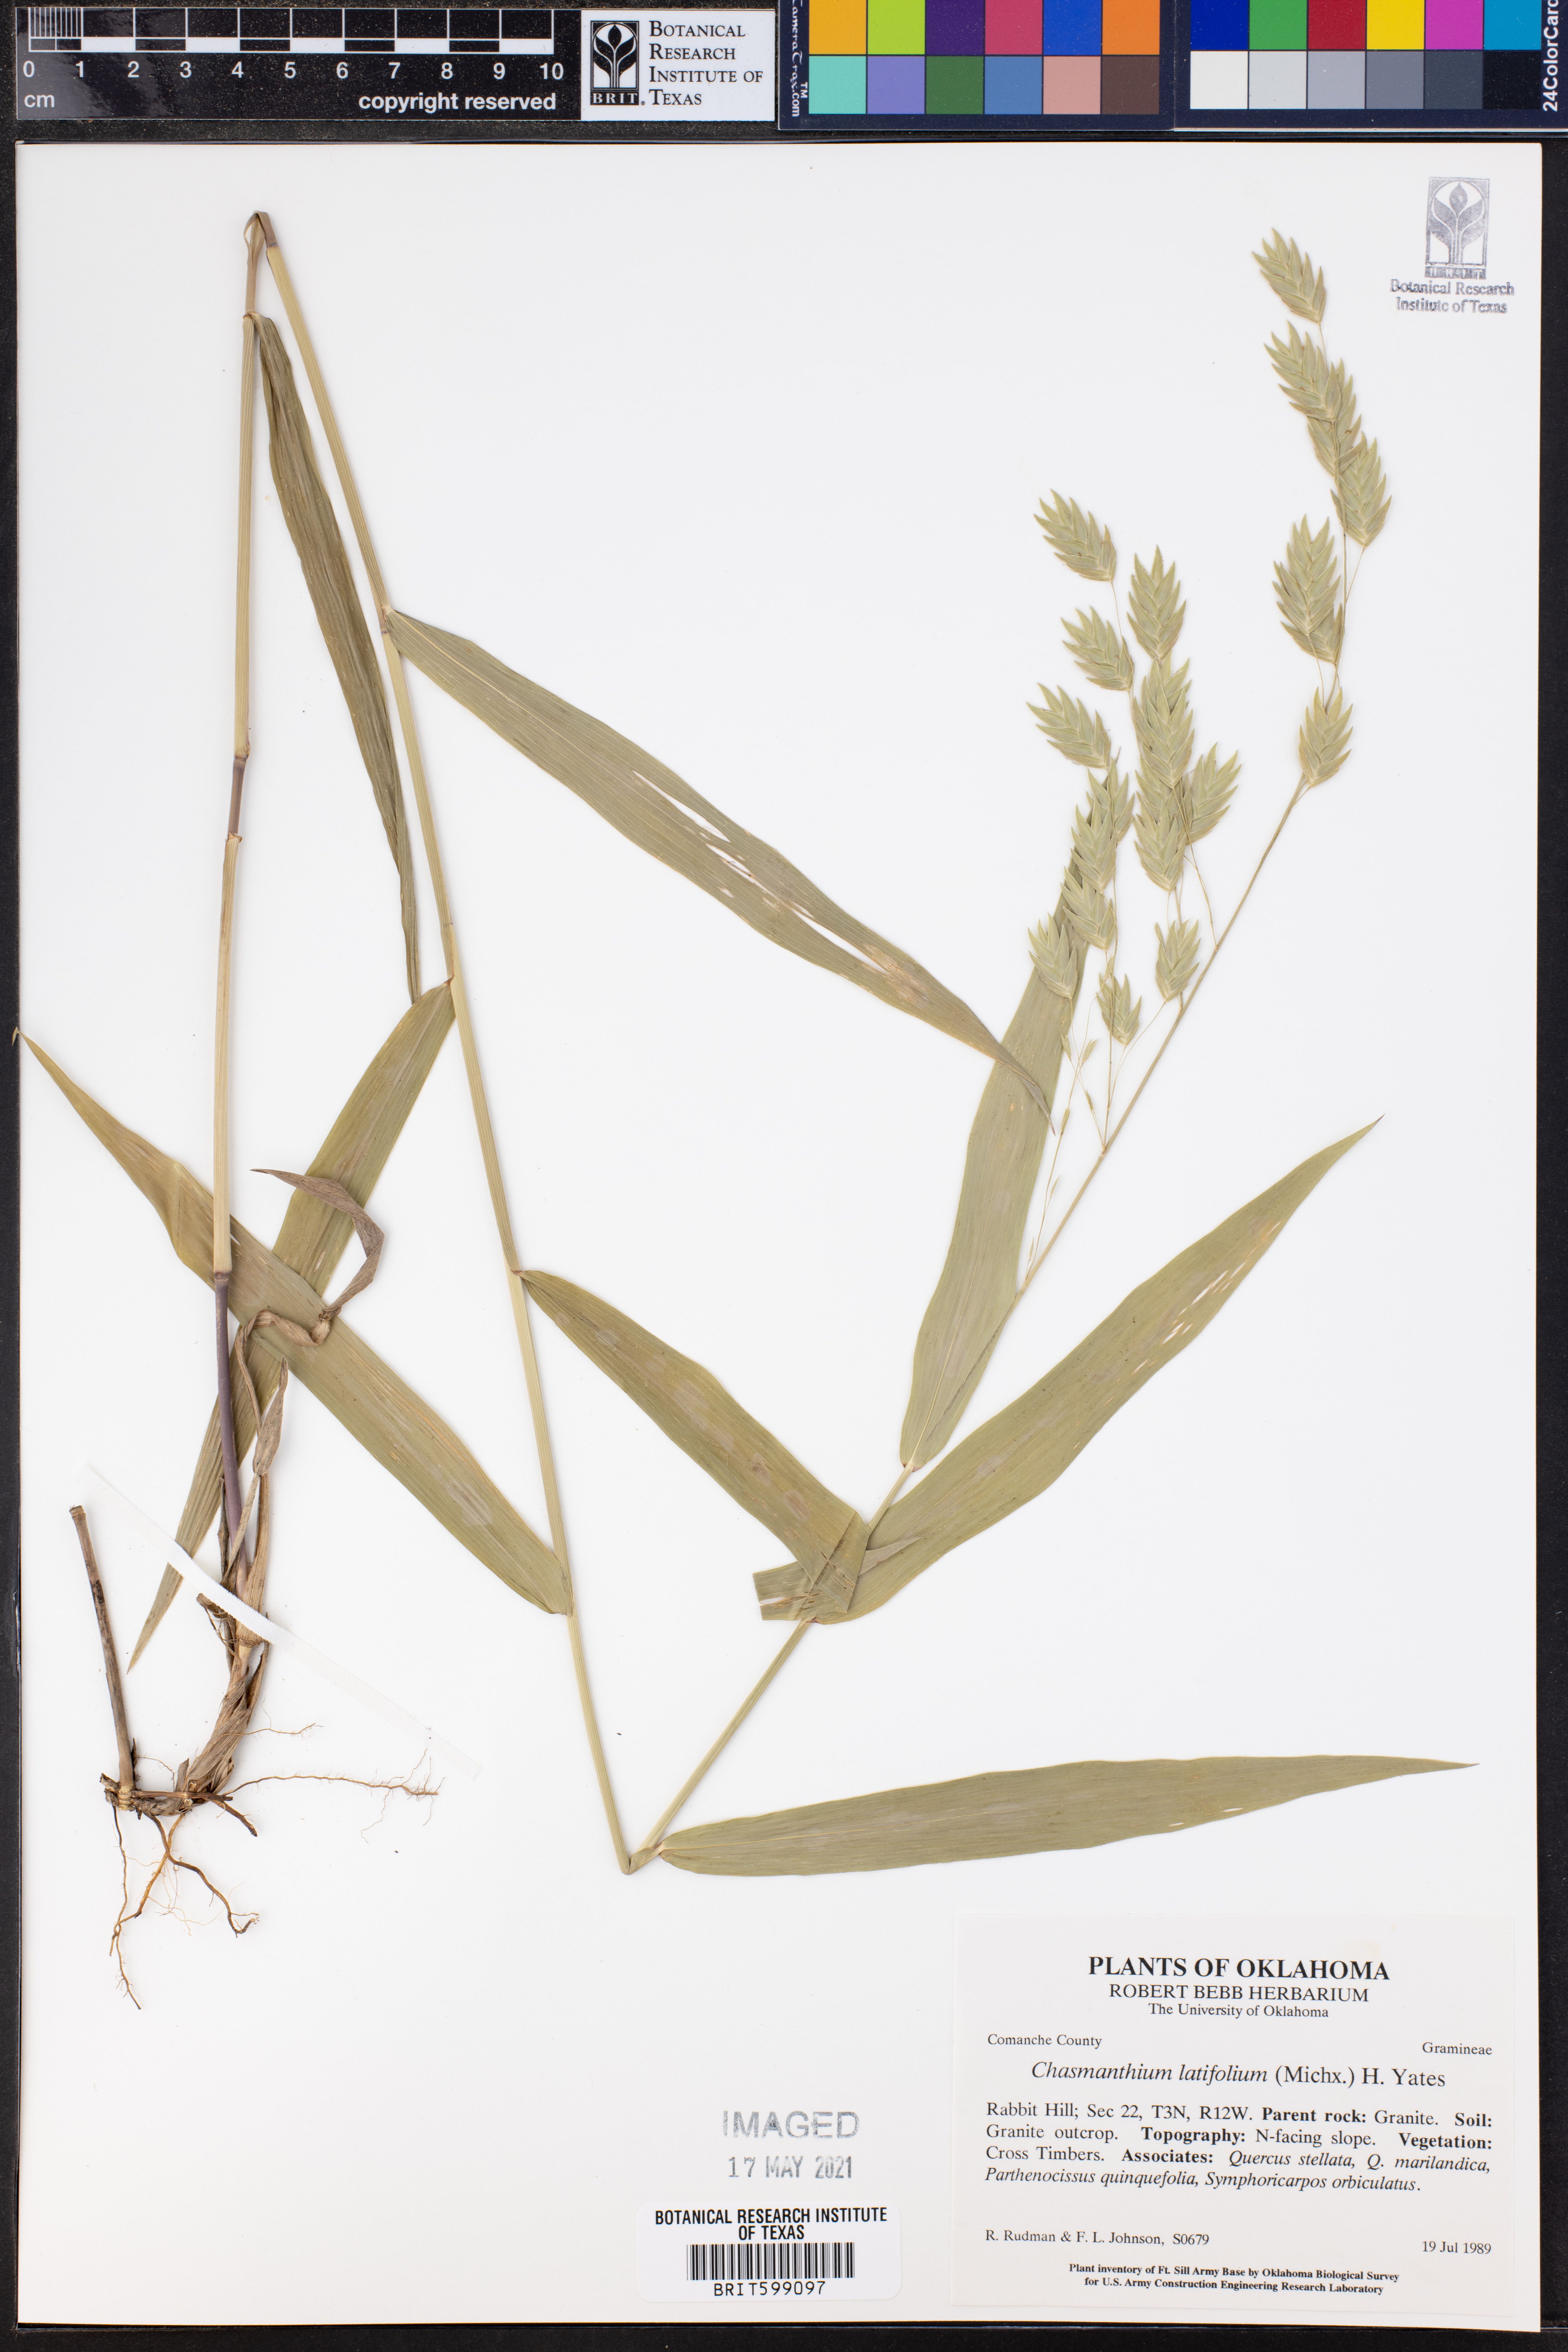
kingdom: Plantae
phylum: Tracheophyta
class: Liliopsida
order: Poales
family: Poaceae
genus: Chasmanthium
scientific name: Chasmanthium latifolium
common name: Broad-leaved chasmanthium
